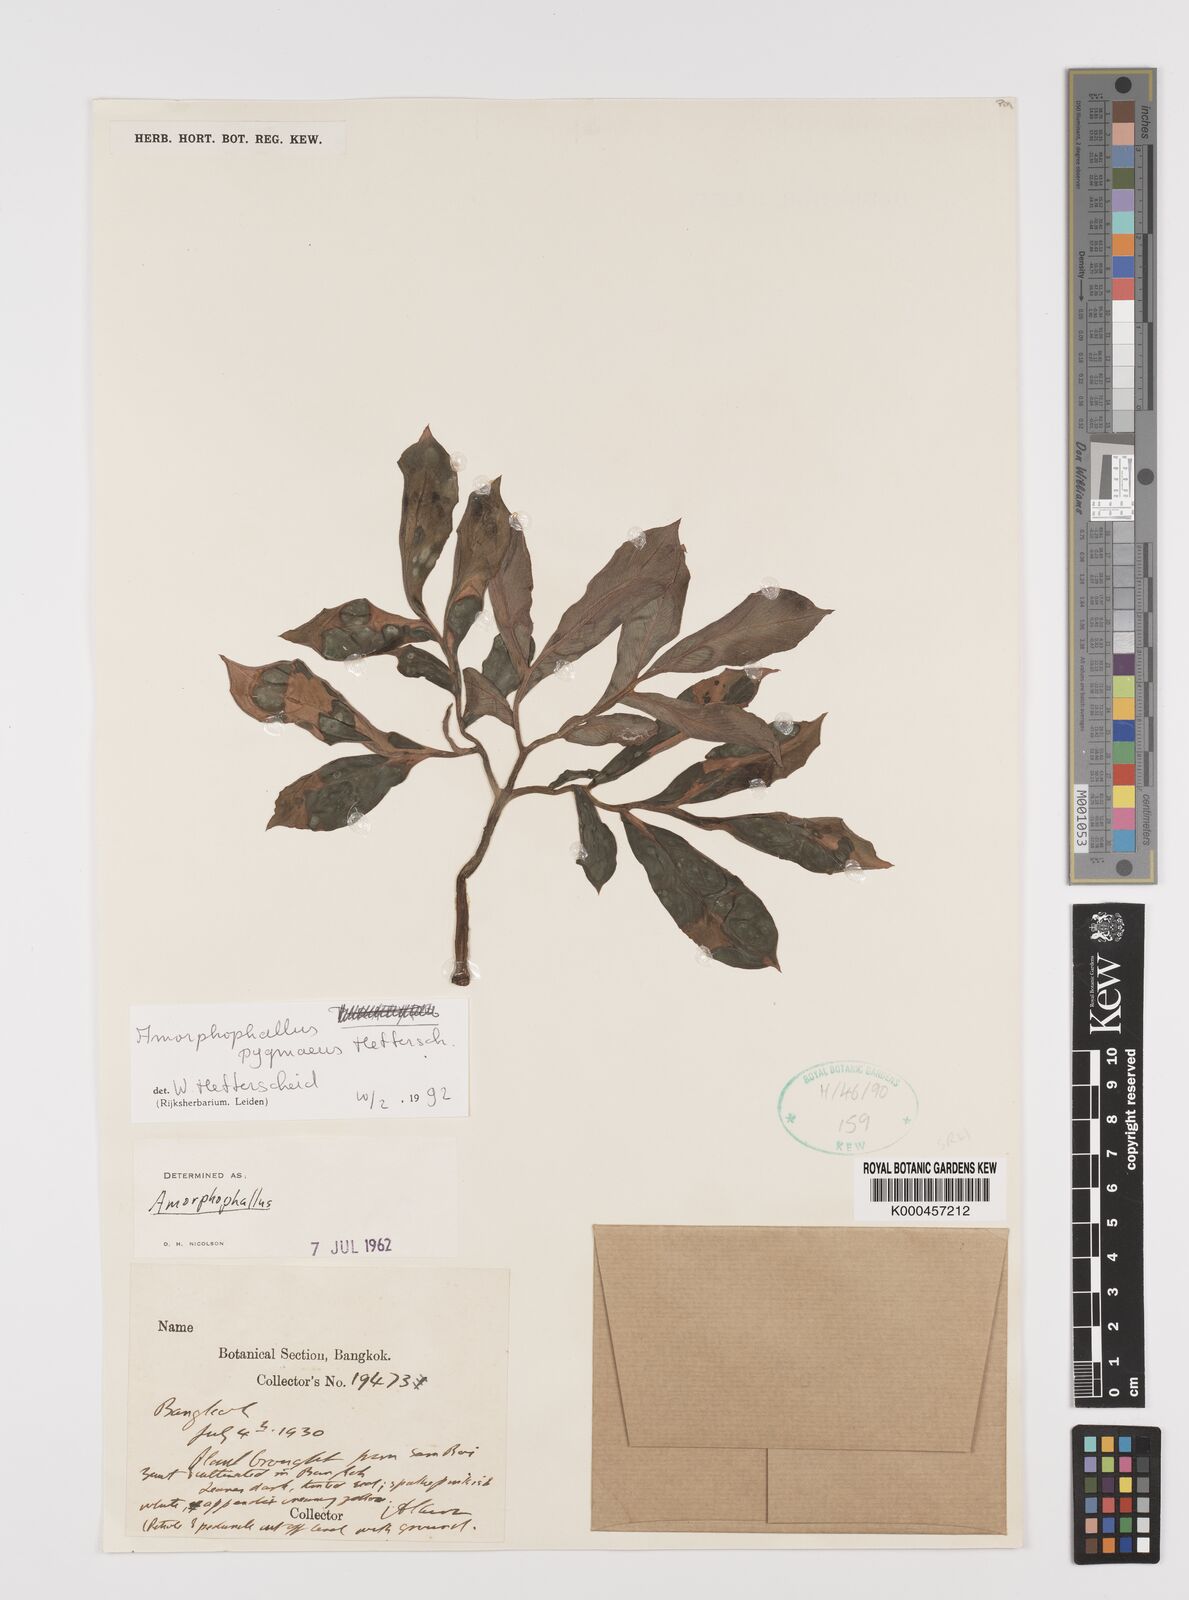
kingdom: Plantae
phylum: Tracheophyta
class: Liliopsida
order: Alismatales
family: Araceae
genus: Amorphophallus
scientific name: Amorphophallus pygmaeus
